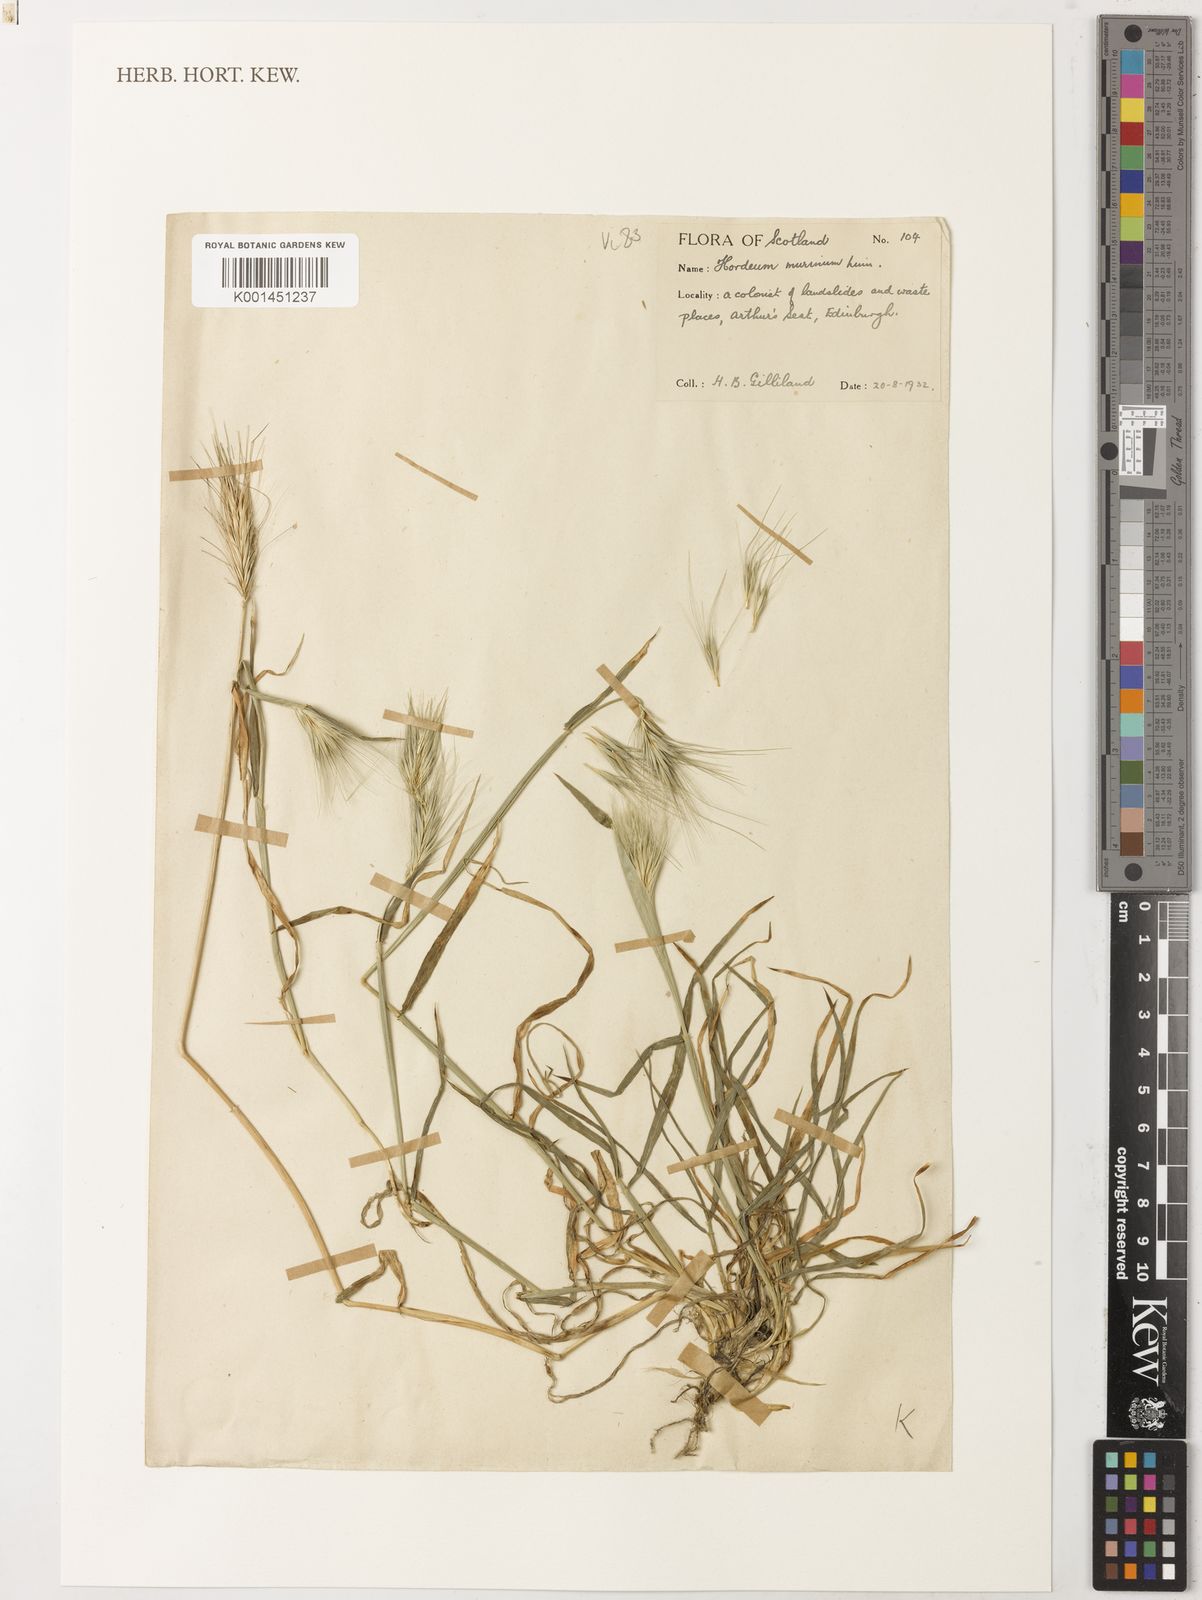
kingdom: Plantae
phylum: Tracheophyta
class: Liliopsida
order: Poales
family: Poaceae
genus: Hordeum
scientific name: Hordeum murinum
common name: Wall barley
